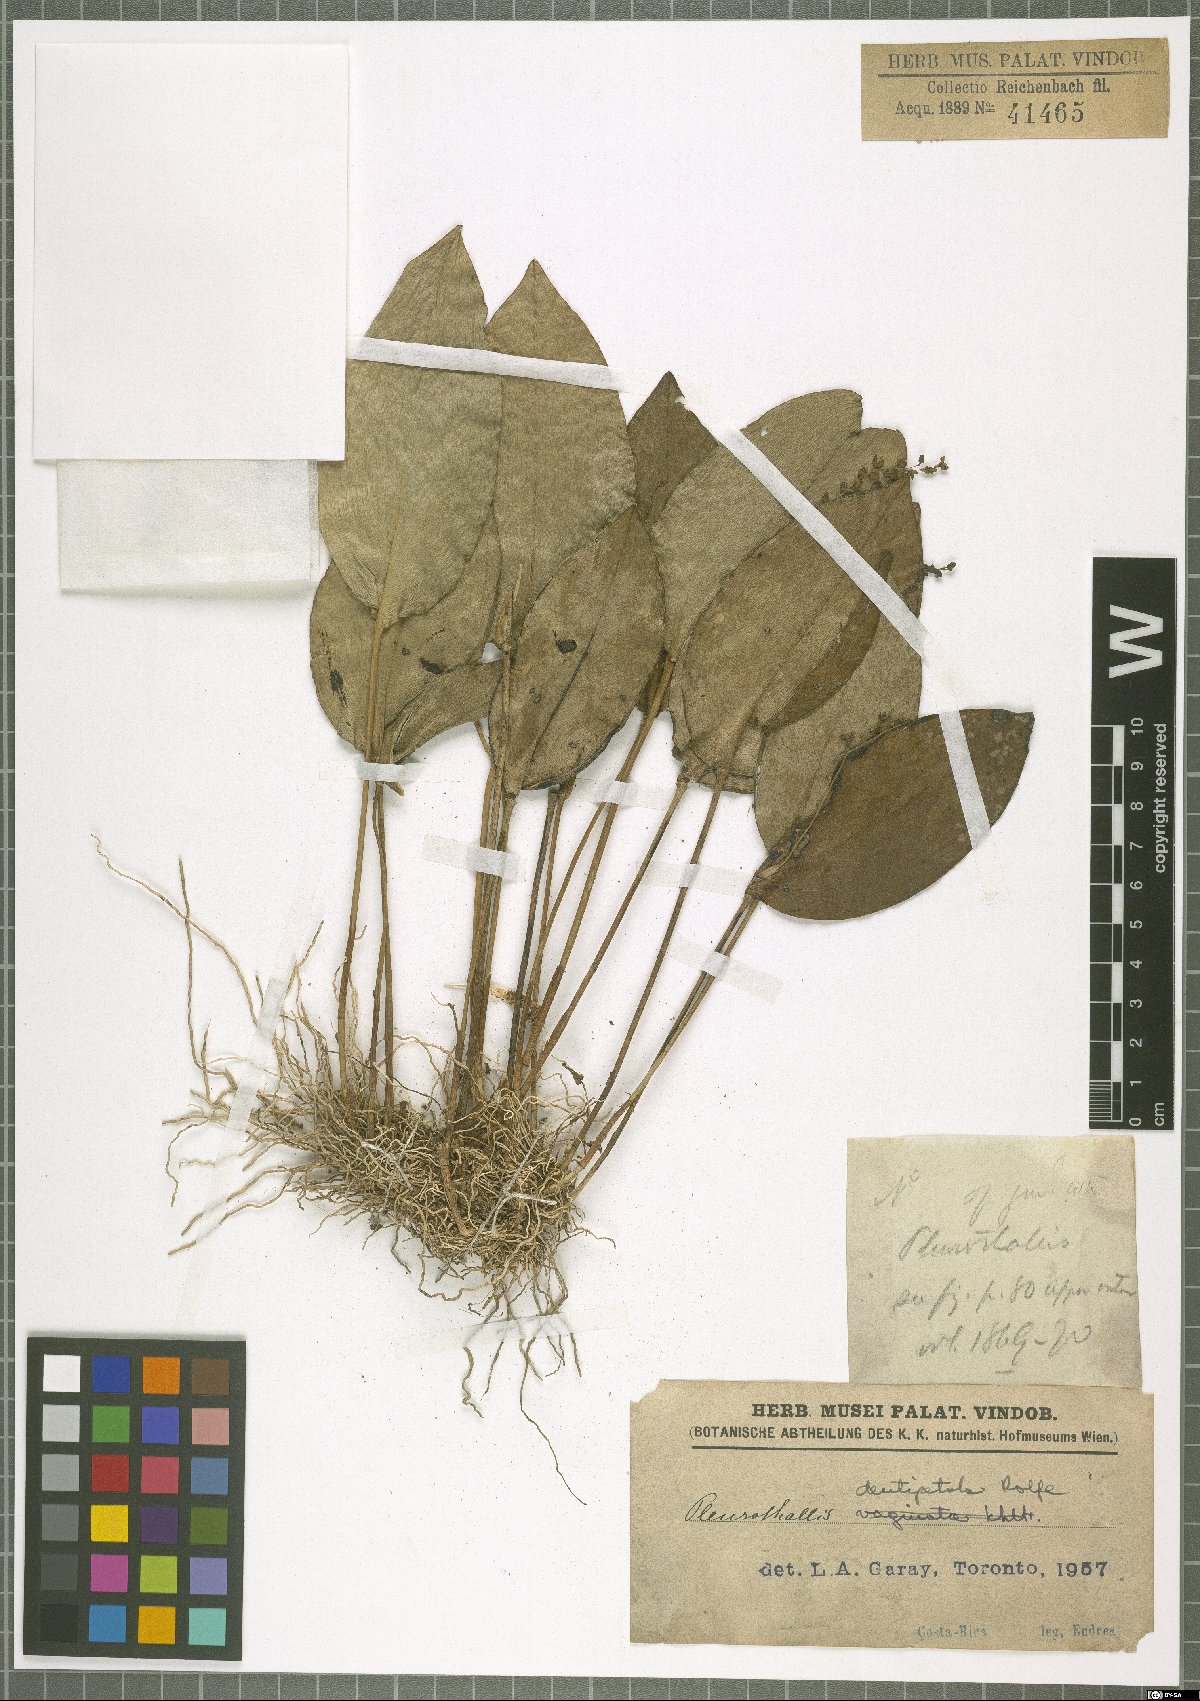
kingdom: Plantae
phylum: Tracheophyta
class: Liliopsida
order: Asparagales
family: Orchidaceae
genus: Pleurothallis
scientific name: Pleurothallis dentipetala
